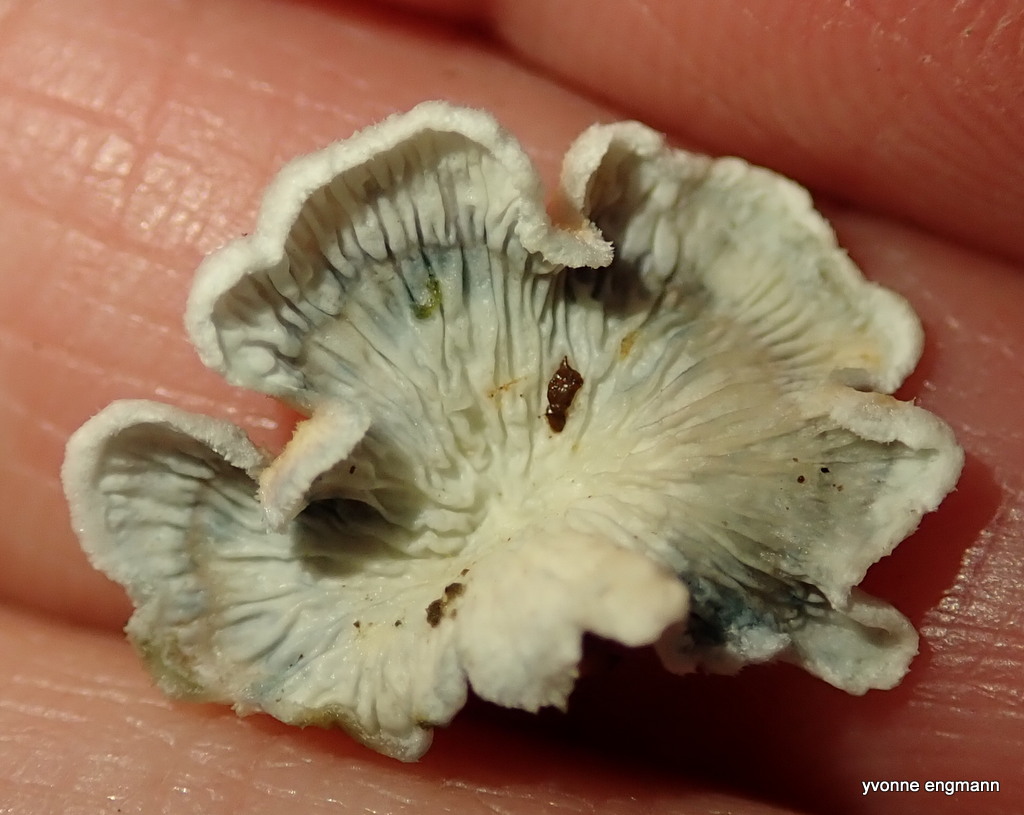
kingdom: Fungi
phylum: Basidiomycota
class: Agaricomycetes
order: Amylocorticiales
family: Amylocorticiaceae
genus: Plicaturopsis
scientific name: Plicaturopsis crispa
